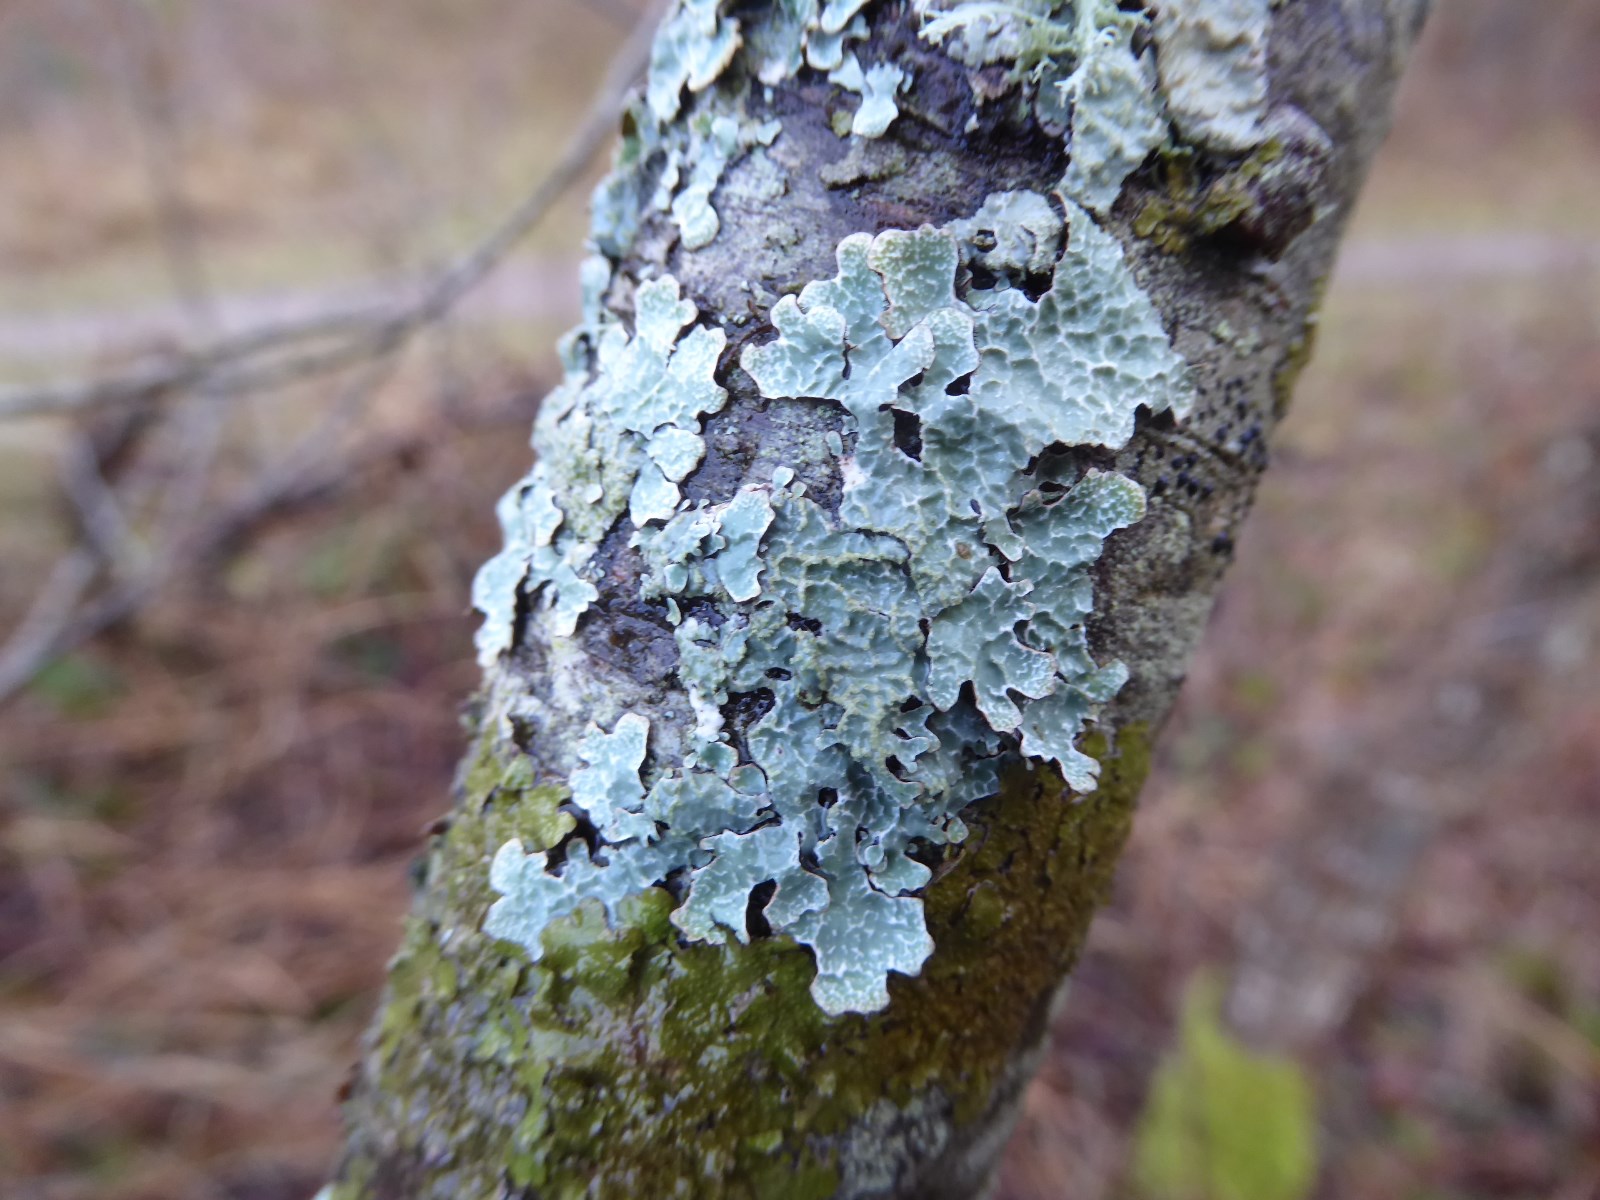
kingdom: Fungi
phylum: Ascomycota
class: Lecanoromycetes
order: Lecanorales
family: Parmeliaceae
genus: Parmelia
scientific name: Parmelia sulcata
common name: rynket skållav
